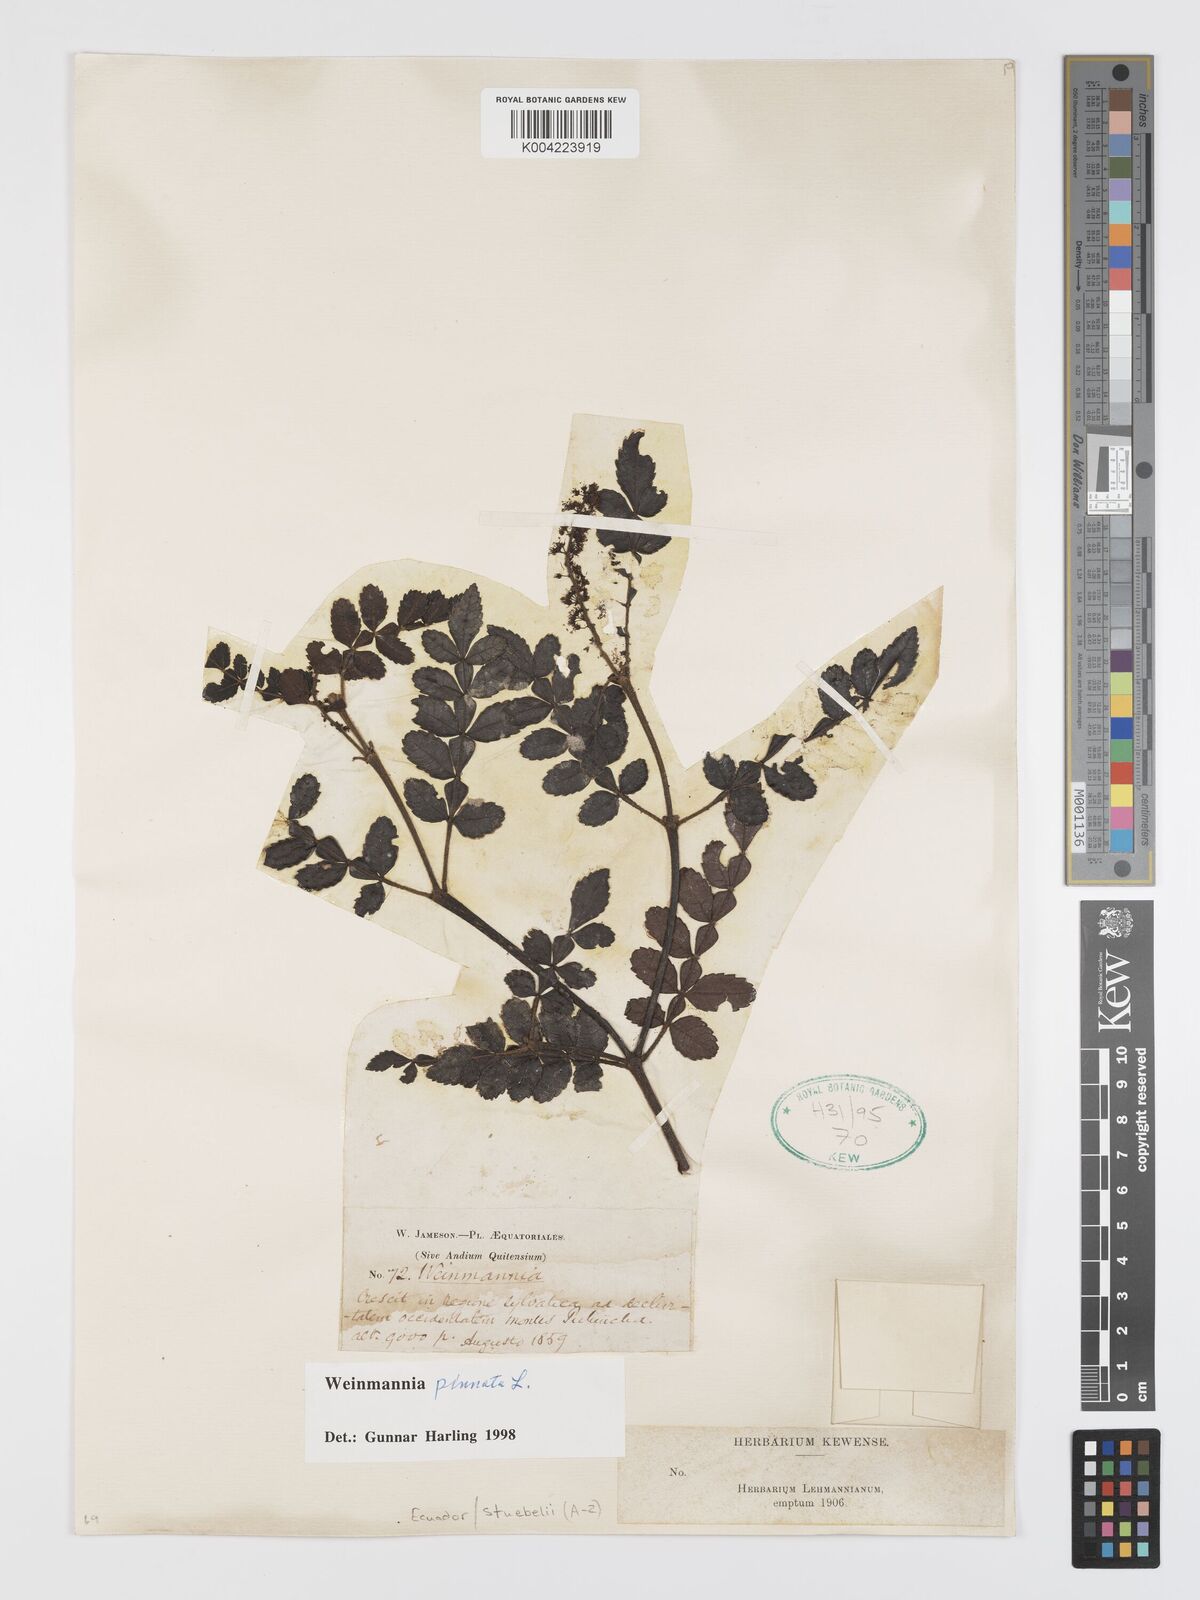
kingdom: Plantae
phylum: Tracheophyta
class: Magnoliopsida
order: Oxalidales
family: Cunoniaceae
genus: Weinmannia
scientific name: Weinmannia pinnata
